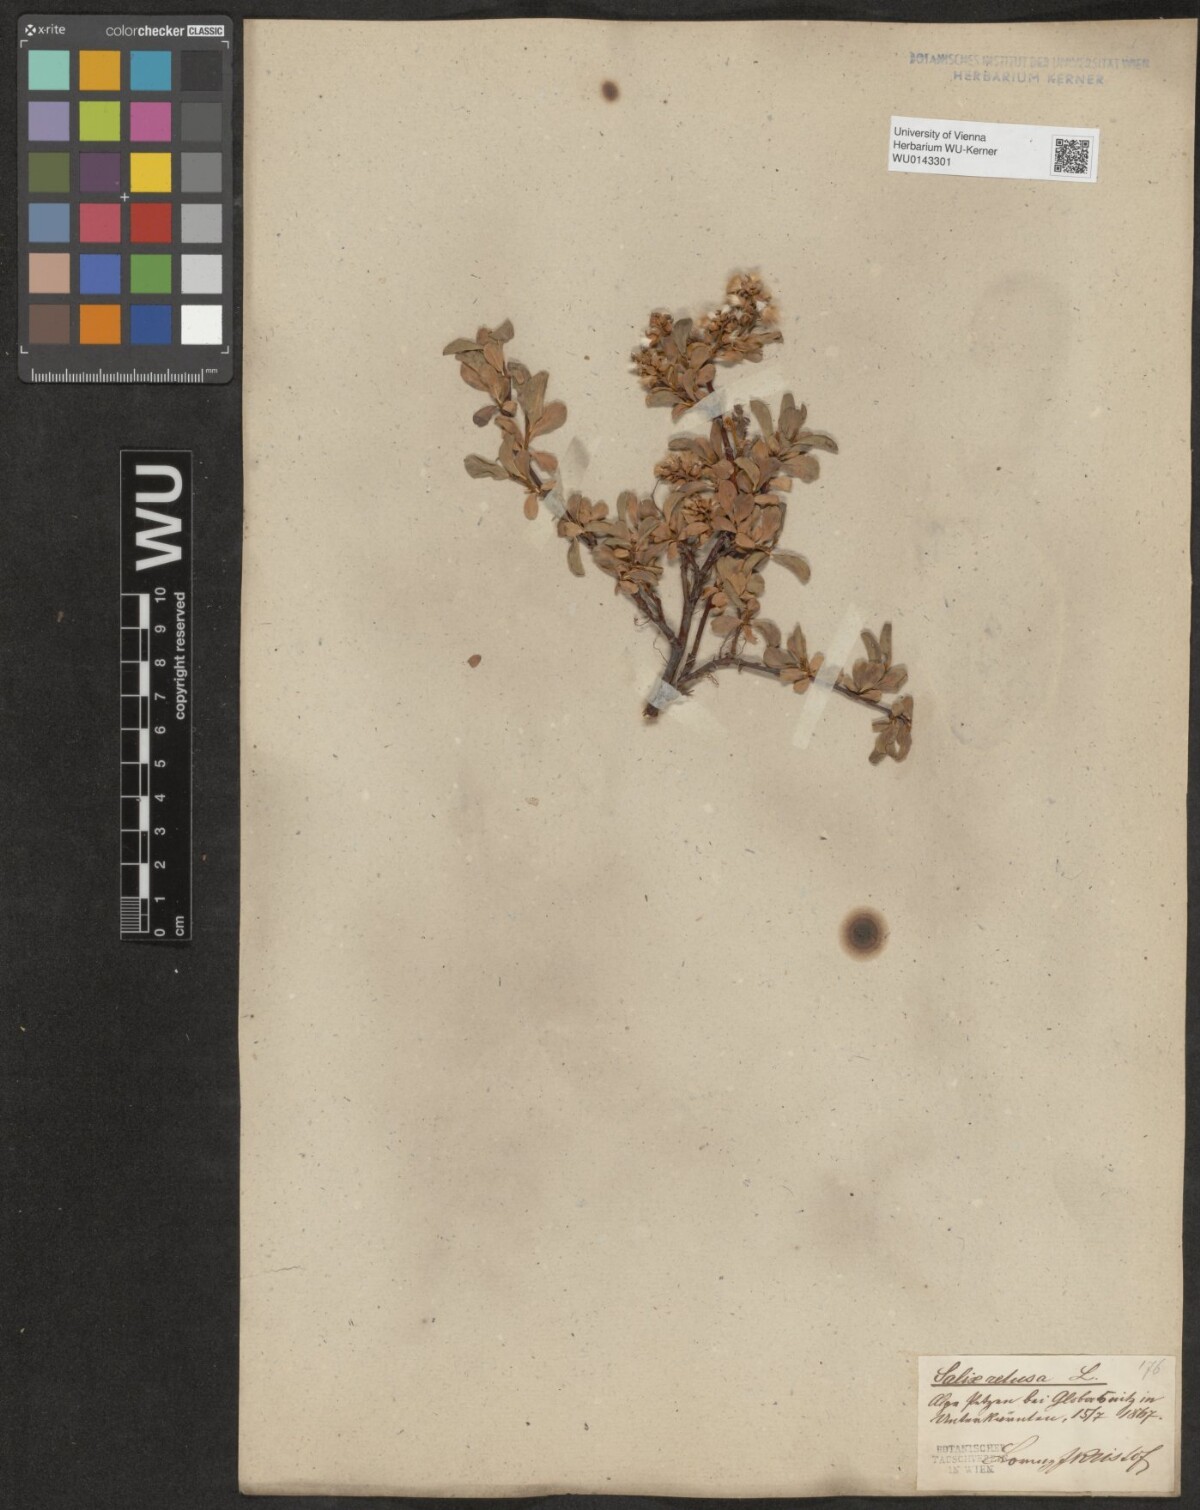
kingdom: Plantae
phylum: Tracheophyta
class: Magnoliopsida
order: Malpighiales
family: Salicaceae
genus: Salix
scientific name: Salix retusa
